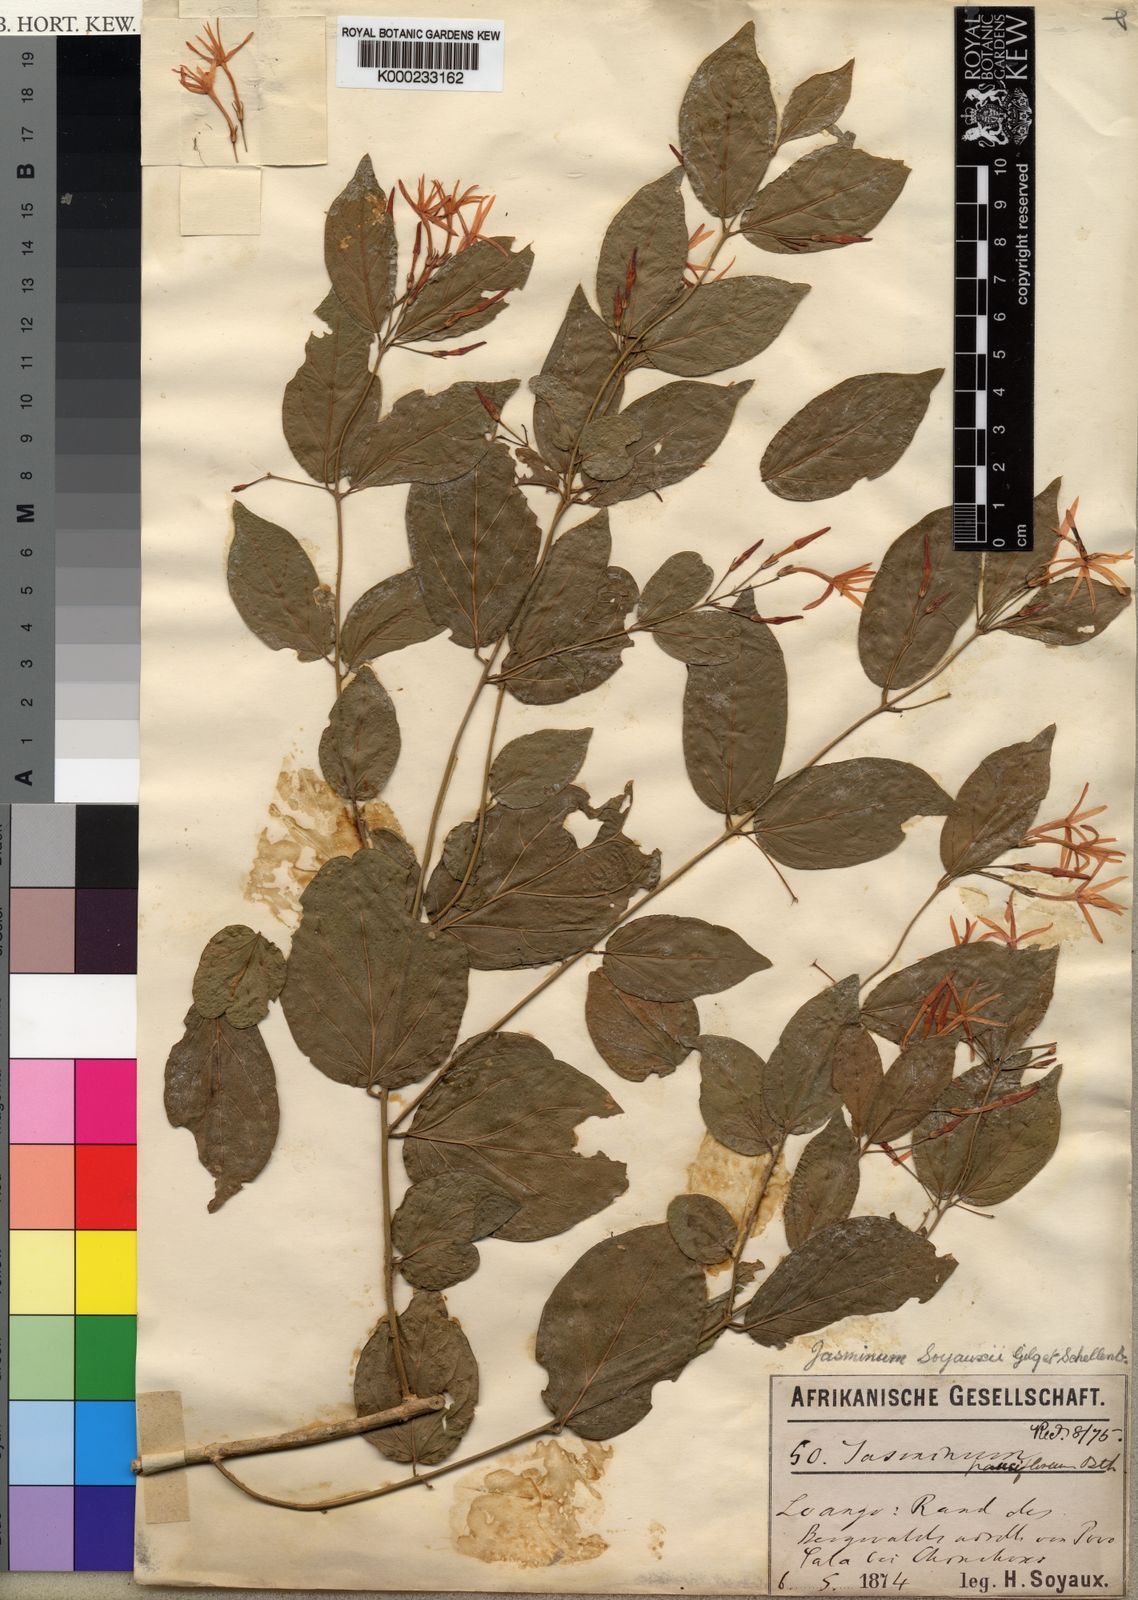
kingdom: Plantae
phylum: Tracheophyta
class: Magnoliopsida
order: Lamiales
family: Oleaceae
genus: Jasminum
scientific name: Jasminum pauciflorum
